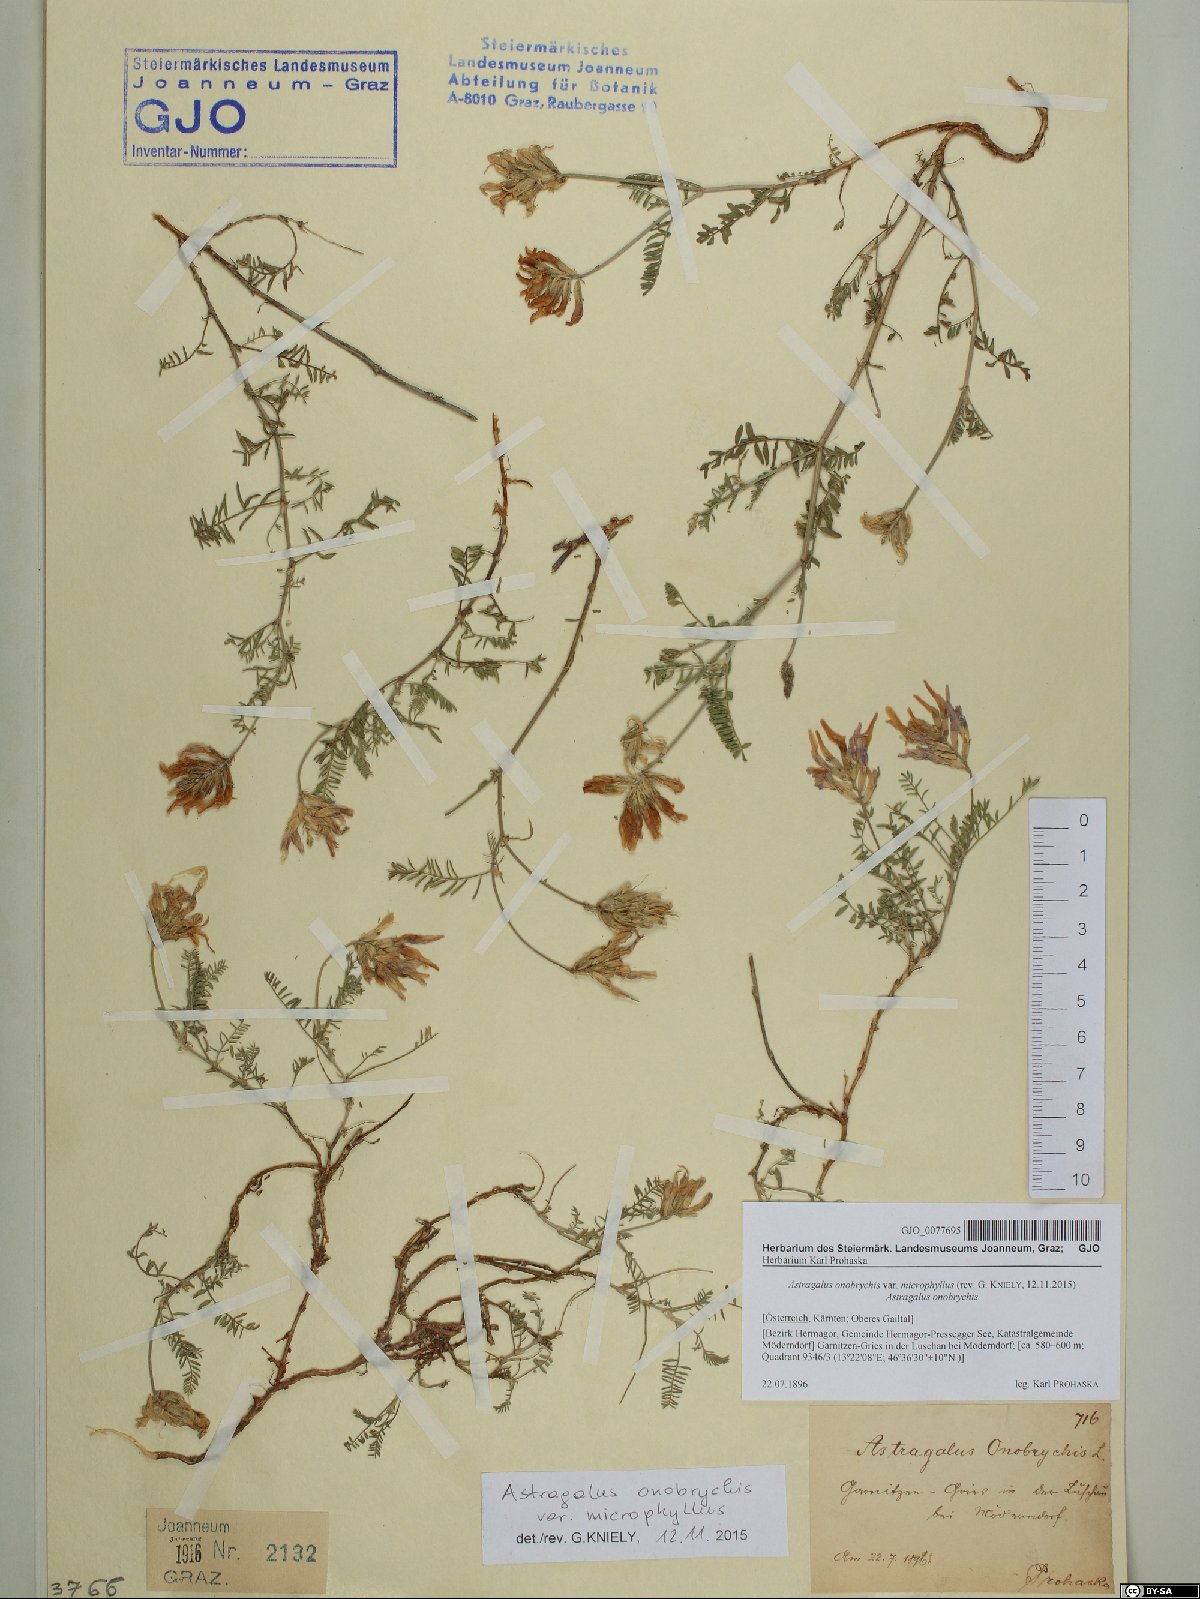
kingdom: Plantae
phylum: Tracheophyta
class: Magnoliopsida
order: Fabales
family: Fabaceae
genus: Astragalus
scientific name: Astragalus onobrychis
